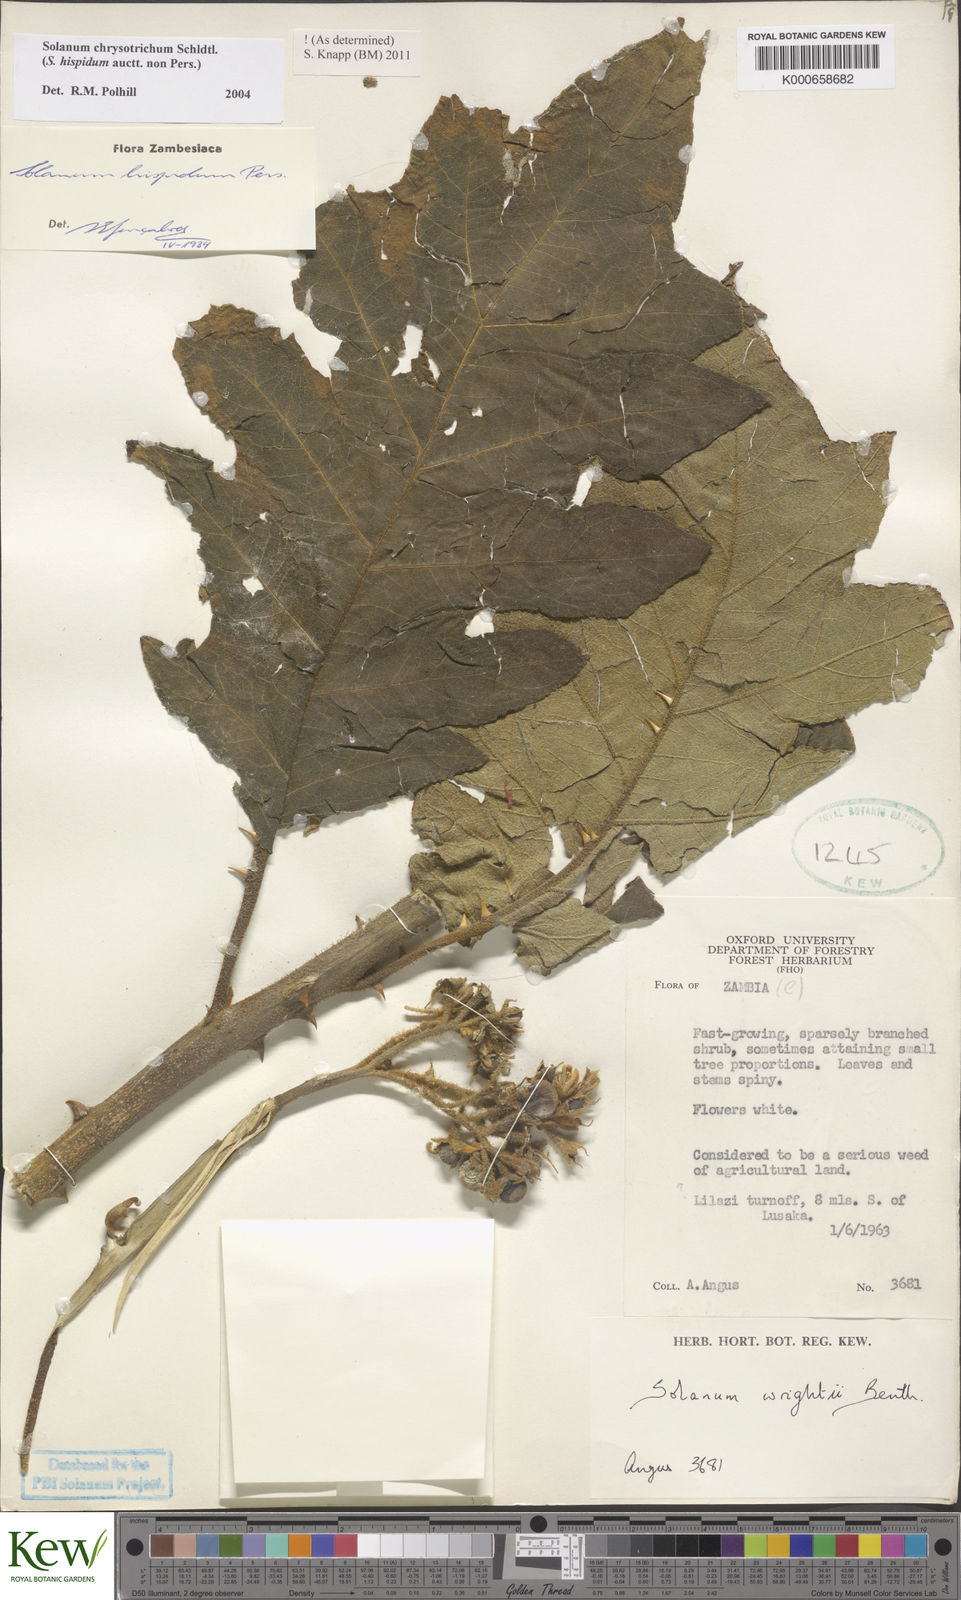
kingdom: Plantae
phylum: Tracheophyta
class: Magnoliopsida
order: Solanales
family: Solanaceae
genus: Solanum
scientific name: Solanum chrysotrichum
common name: Nightshade
